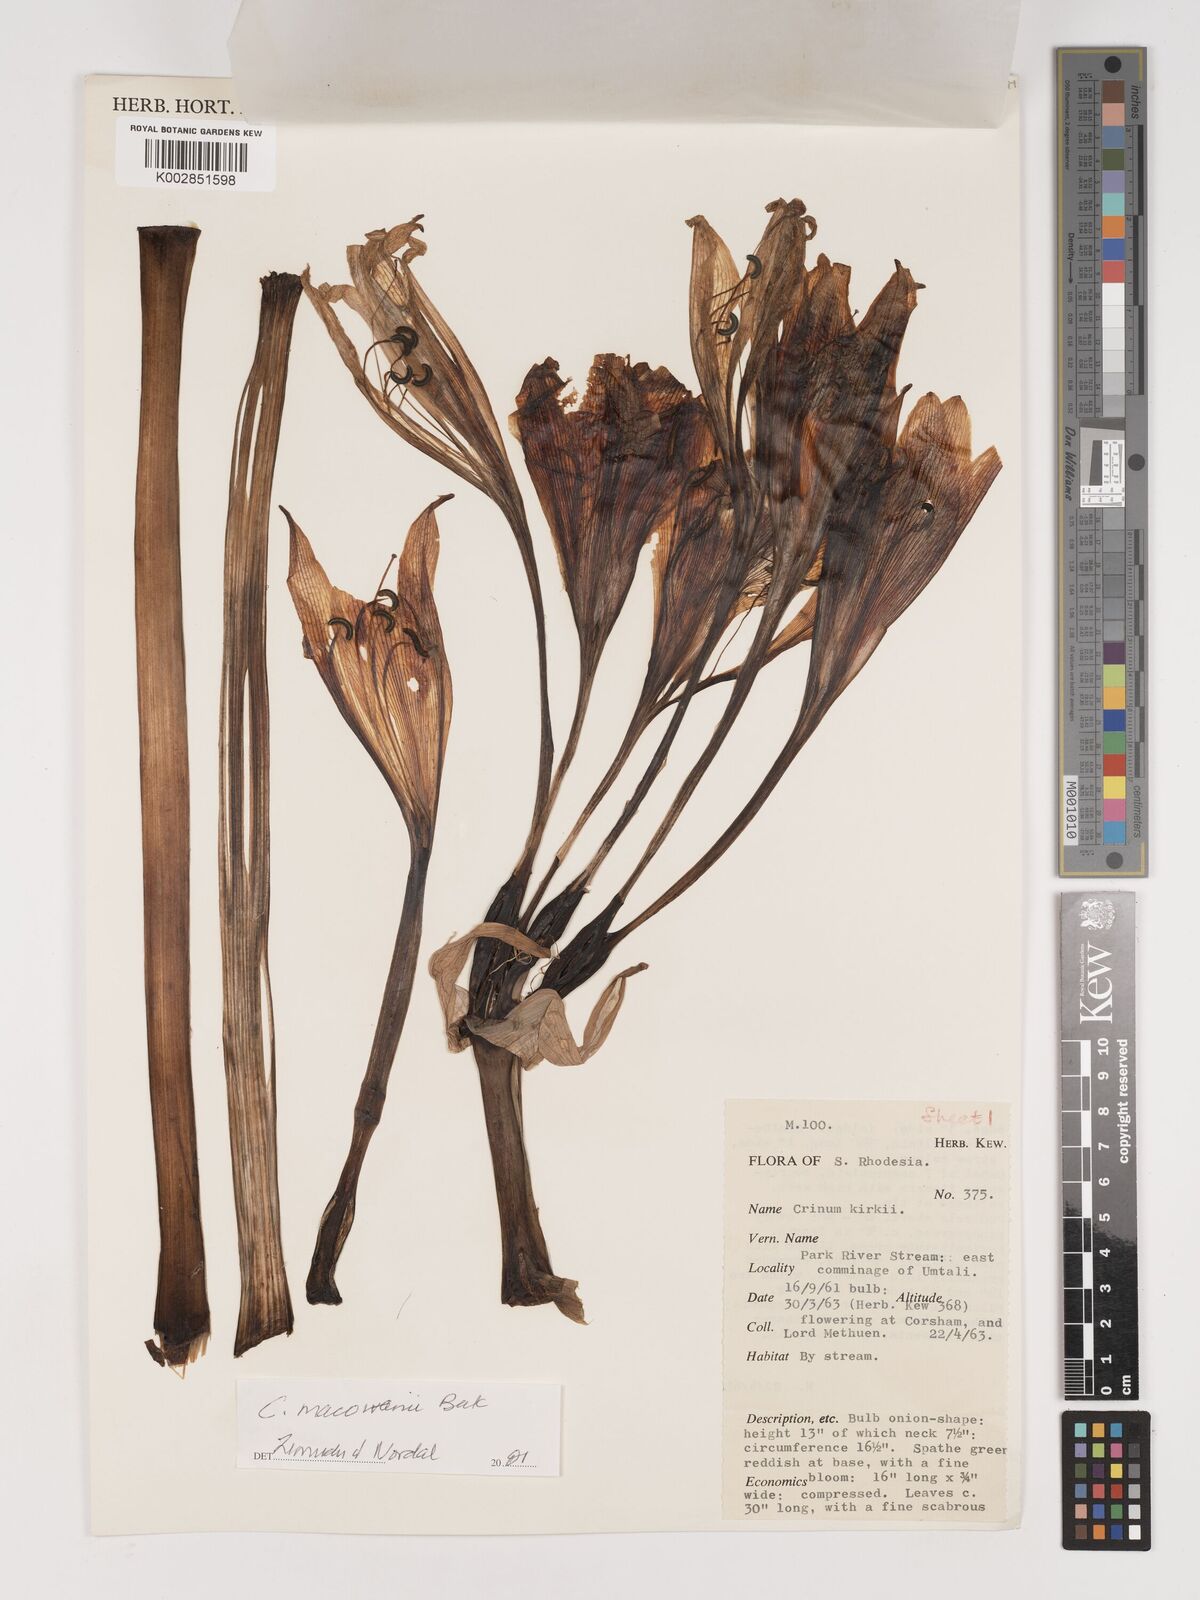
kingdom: Plantae
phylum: Tracheophyta
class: Liliopsida
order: Asparagales
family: Amaryllidaceae
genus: Crinum
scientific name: Crinum macowanii
